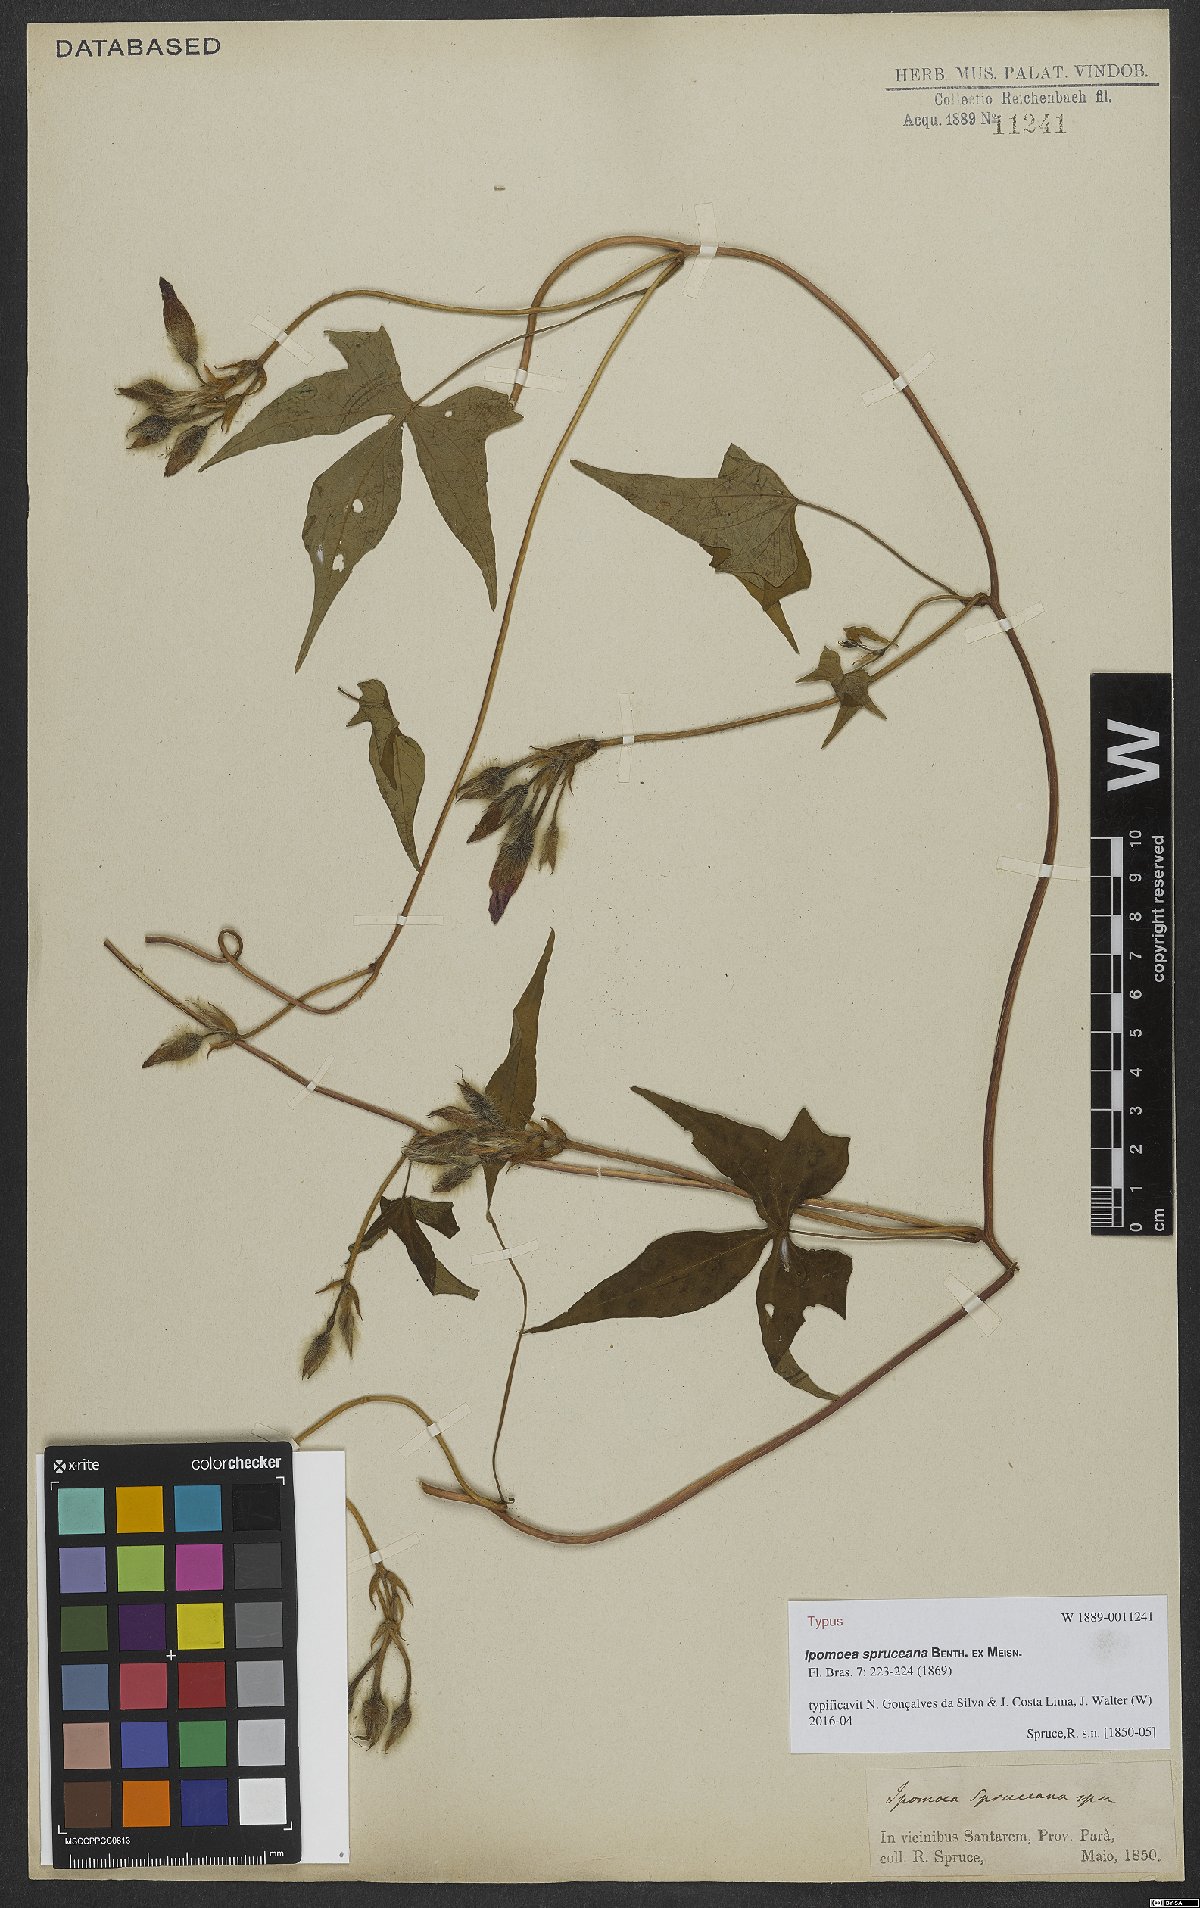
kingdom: Plantae
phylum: Tracheophyta
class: Magnoliopsida
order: Solanales
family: Convolvulaceae
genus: Ipomoea
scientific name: Ipomoea spruceana
